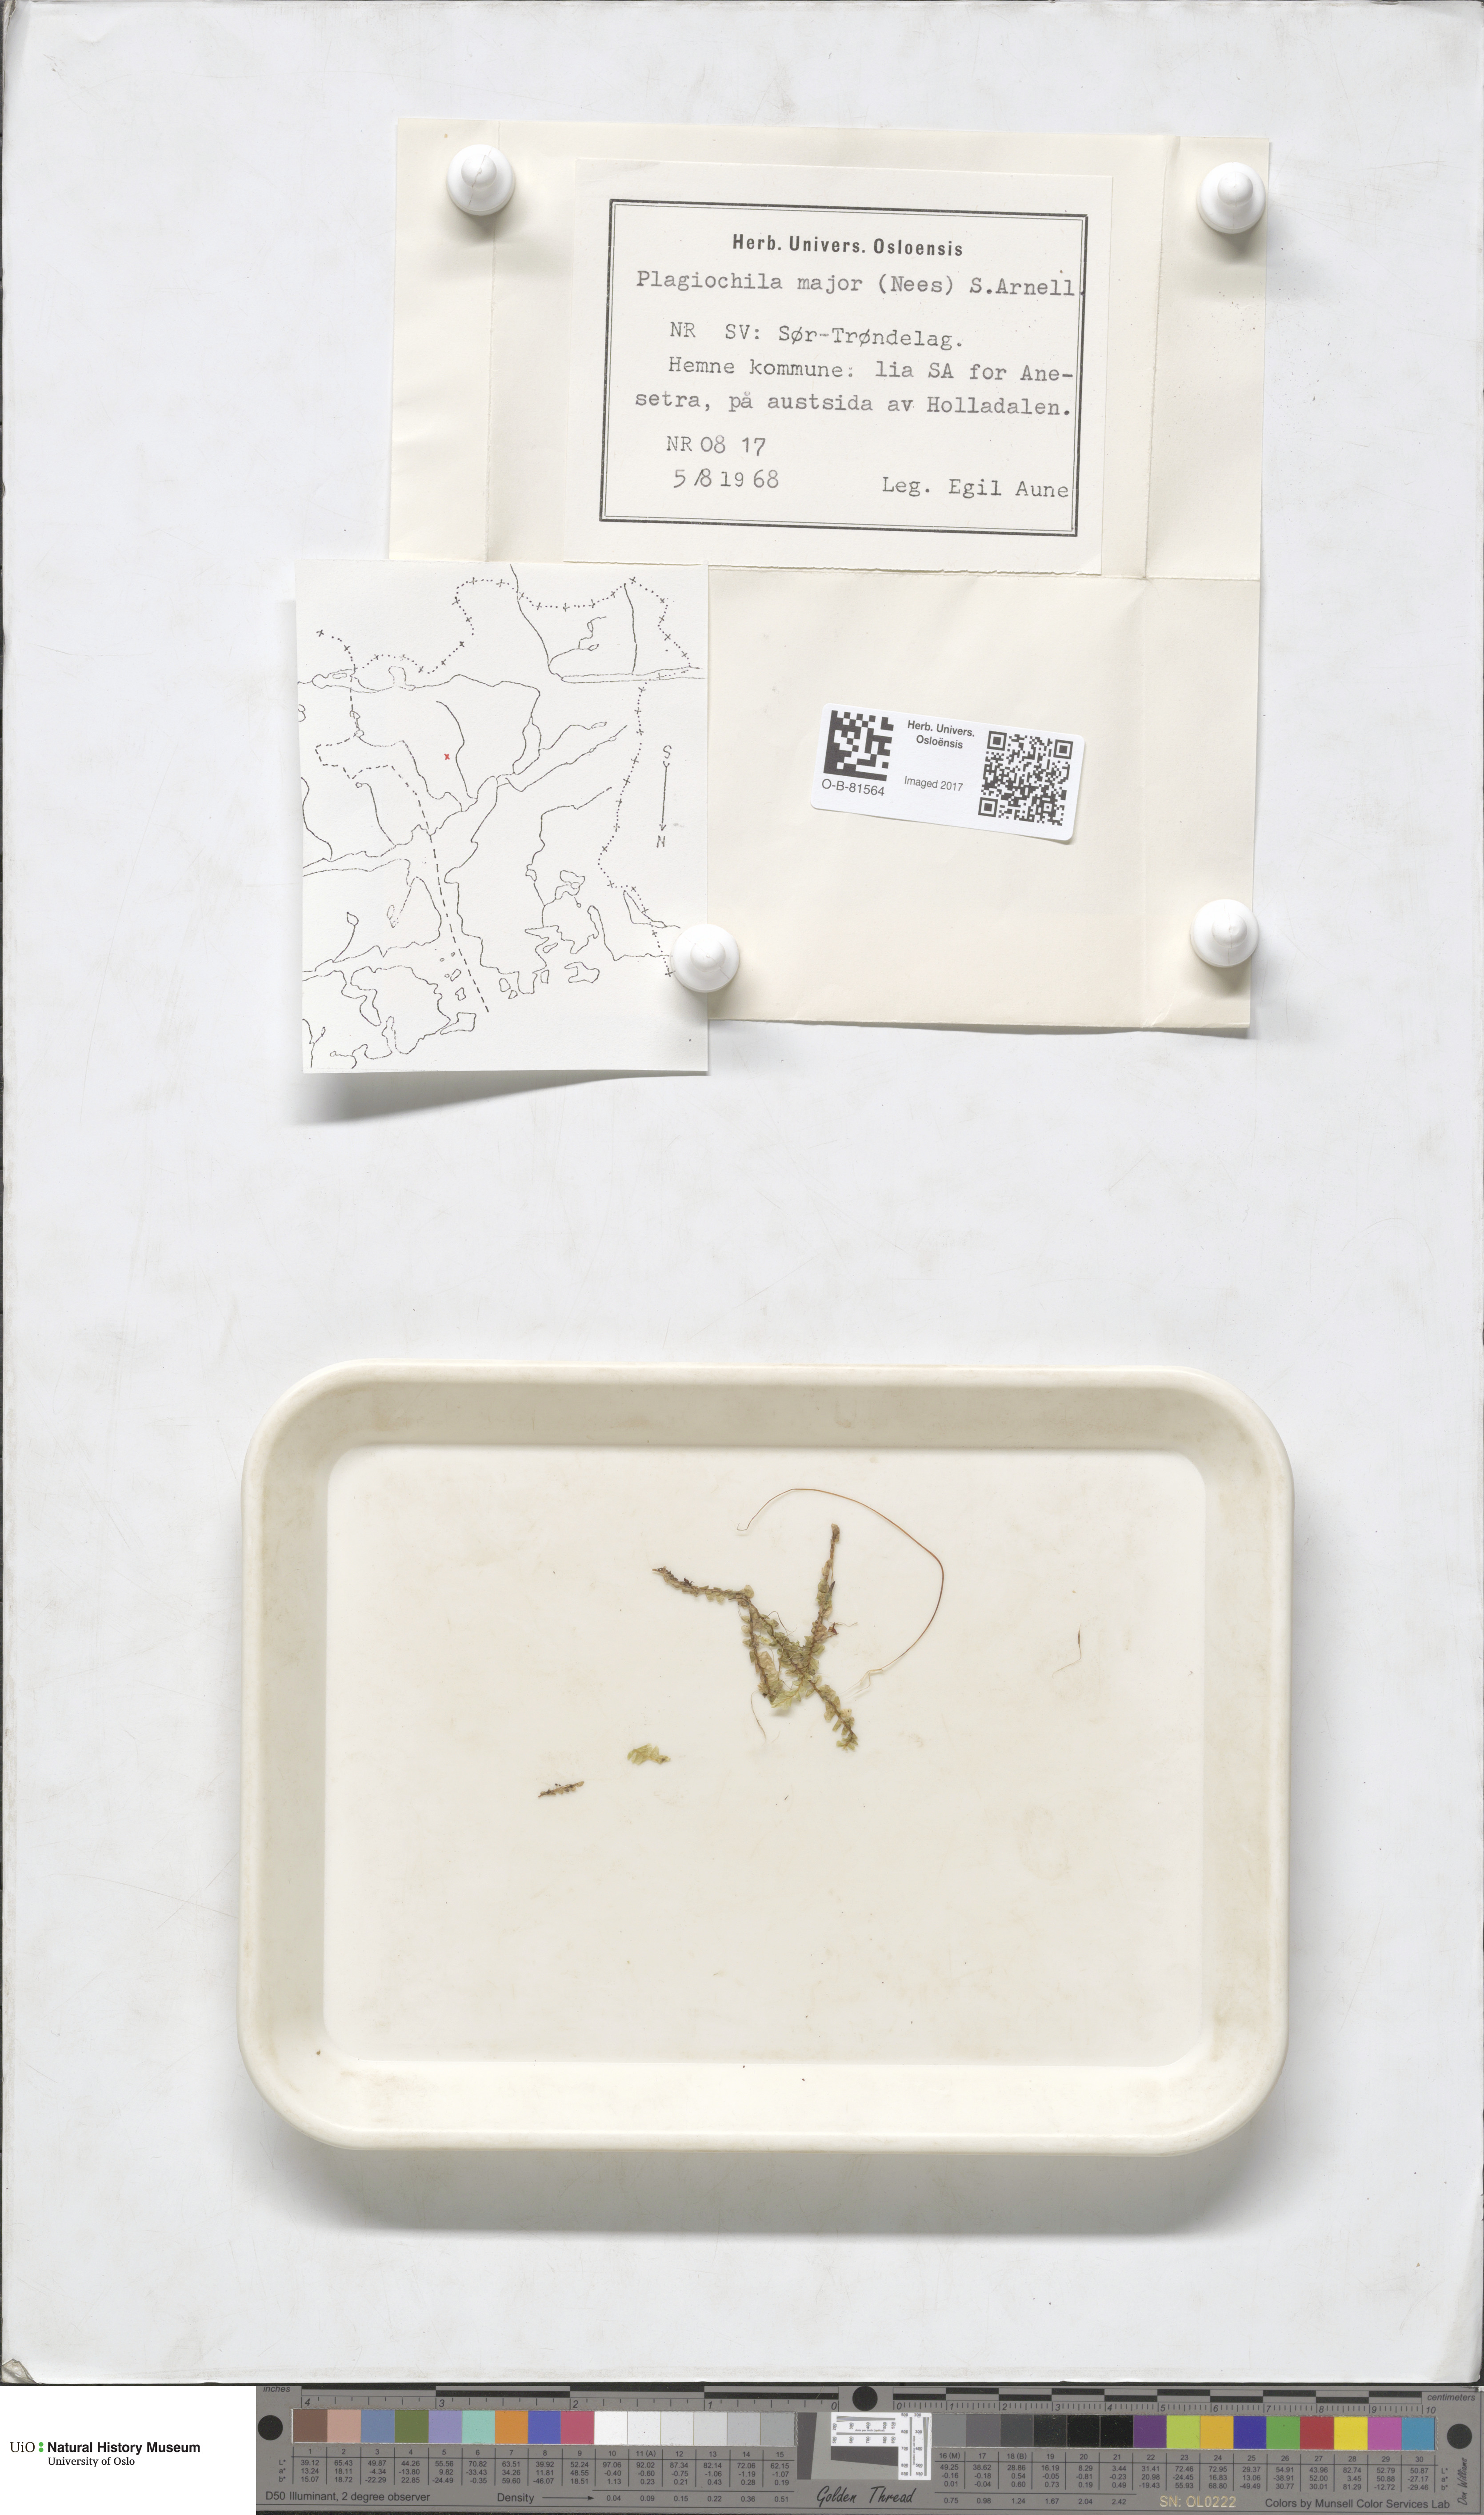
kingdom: Plantae
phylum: Marchantiophyta
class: Jungermanniopsida
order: Jungermanniales
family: Plagiochilaceae
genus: Plagiochila
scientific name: Plagiochila asplenioides
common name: Greater featherwort
